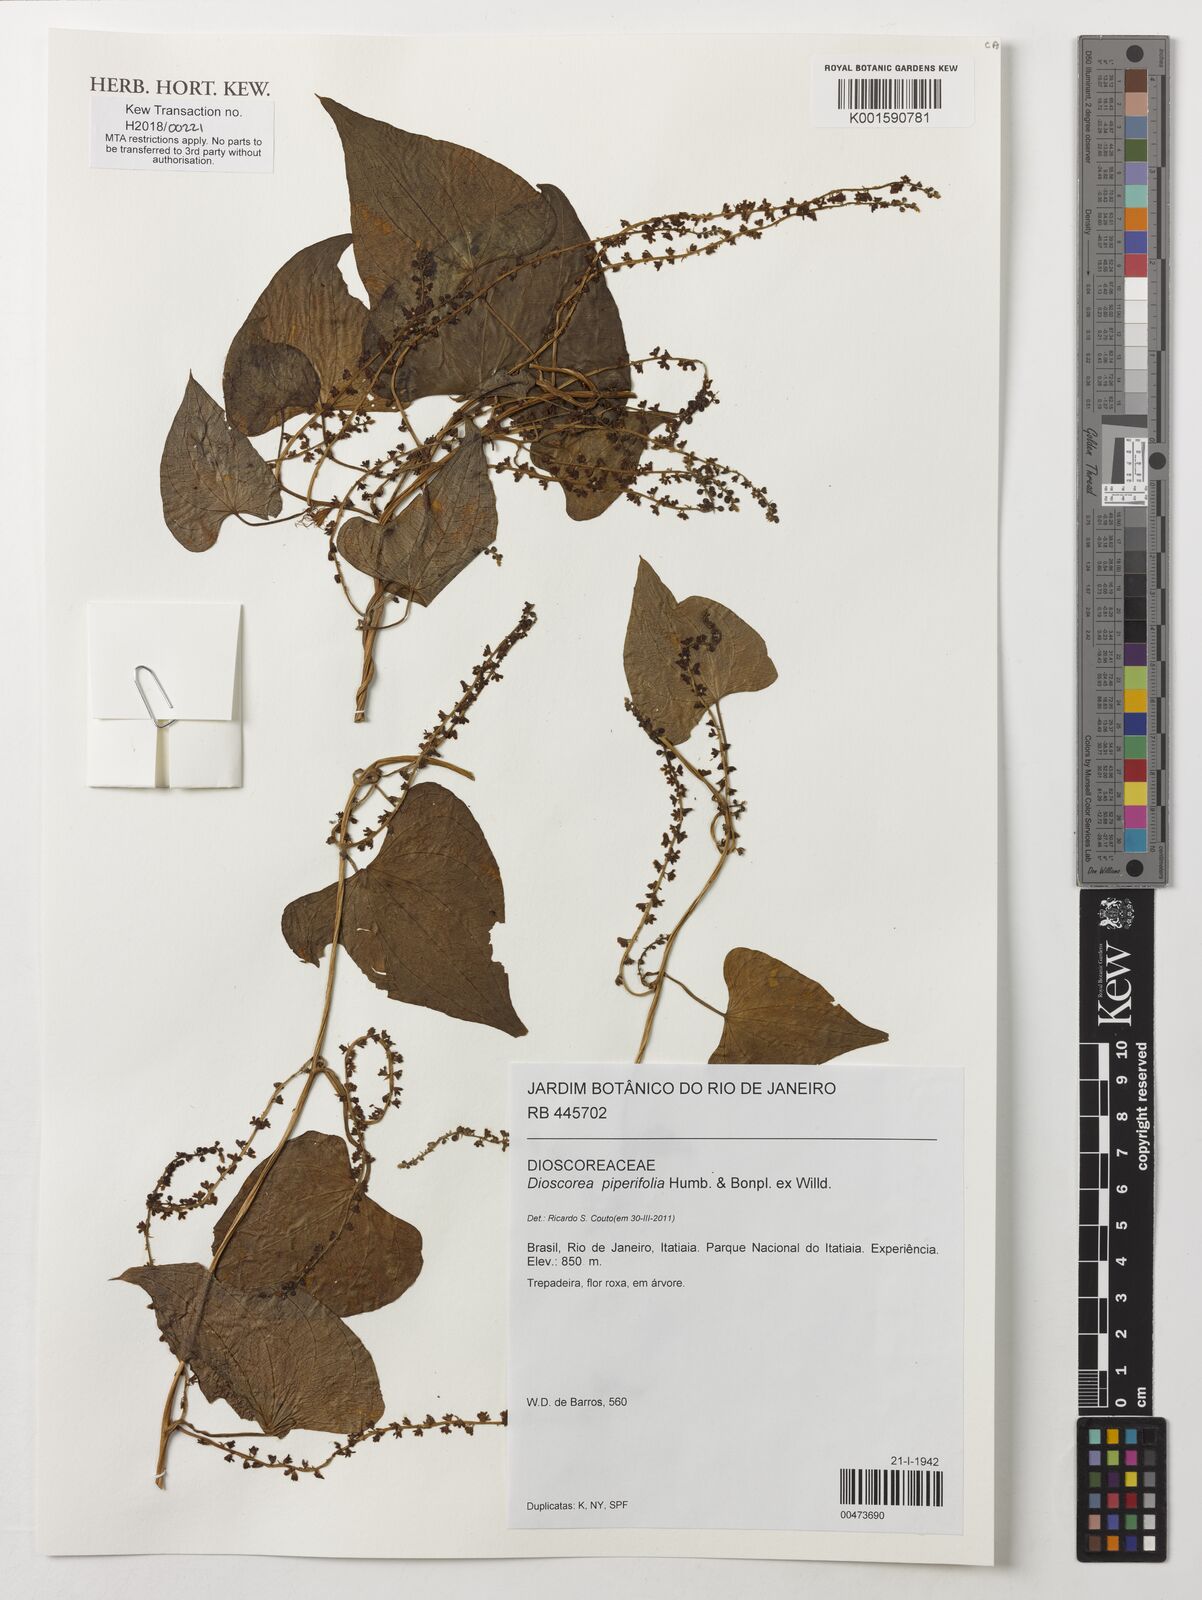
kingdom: Plantae
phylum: Tracheophyta
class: Liliopsida
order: Dioscoreales
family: Dioscoreaceae
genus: Dioscorea
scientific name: Dioscorea piperifolia
